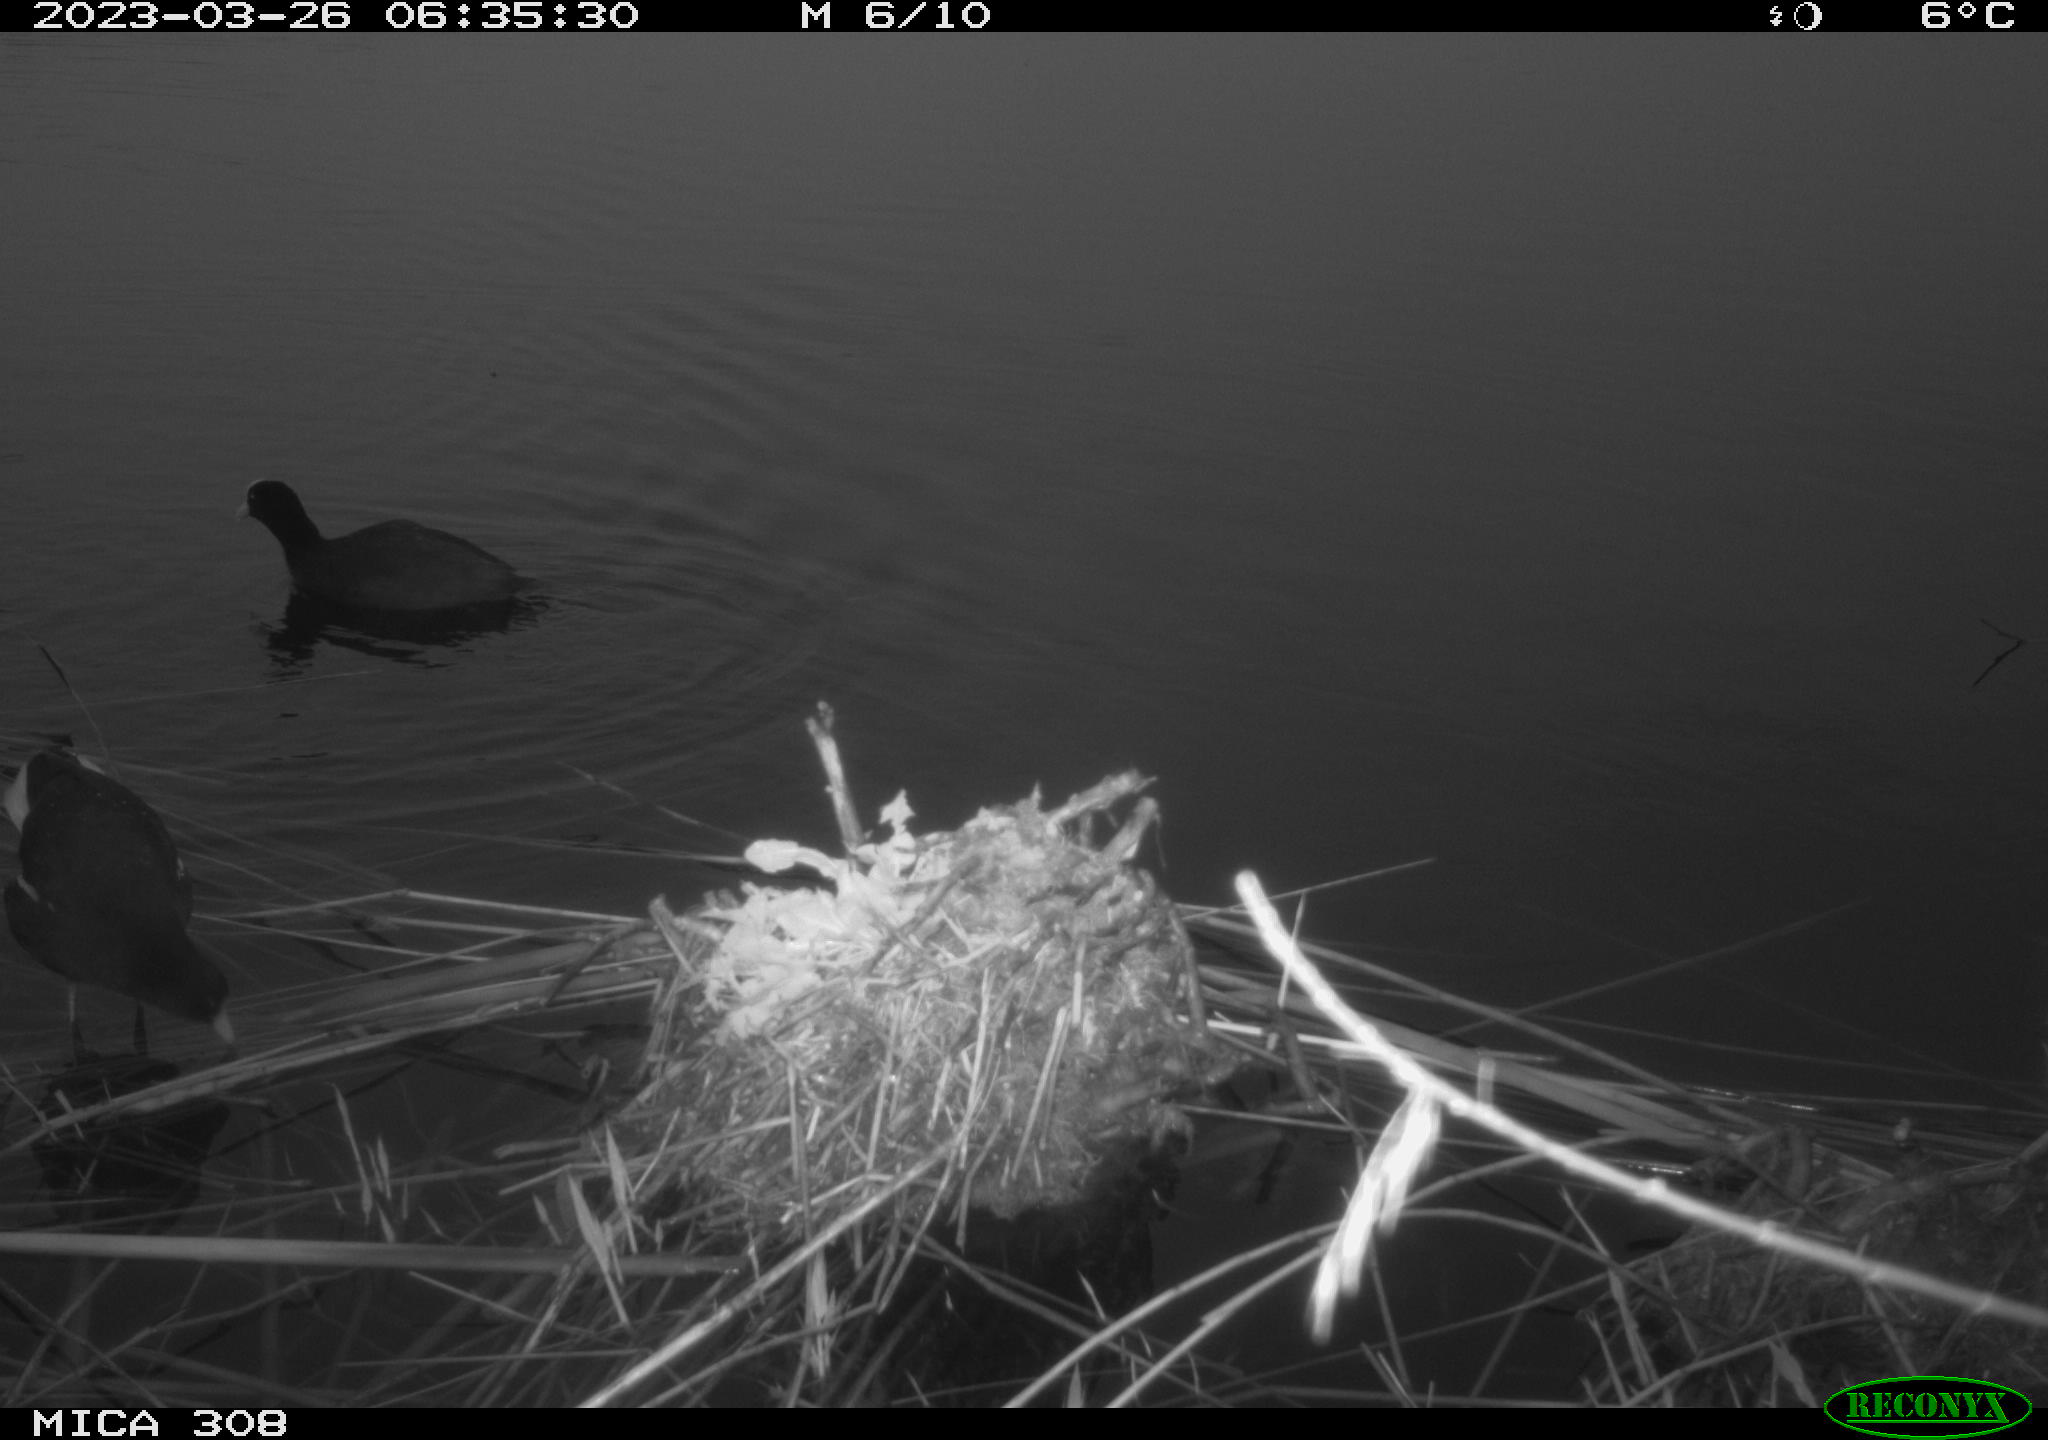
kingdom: Animalia
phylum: Chordata
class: Aves
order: Gruiformes
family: Rallidae
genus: Gallinula
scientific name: Gallinula chloropus
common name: Common moorhen
